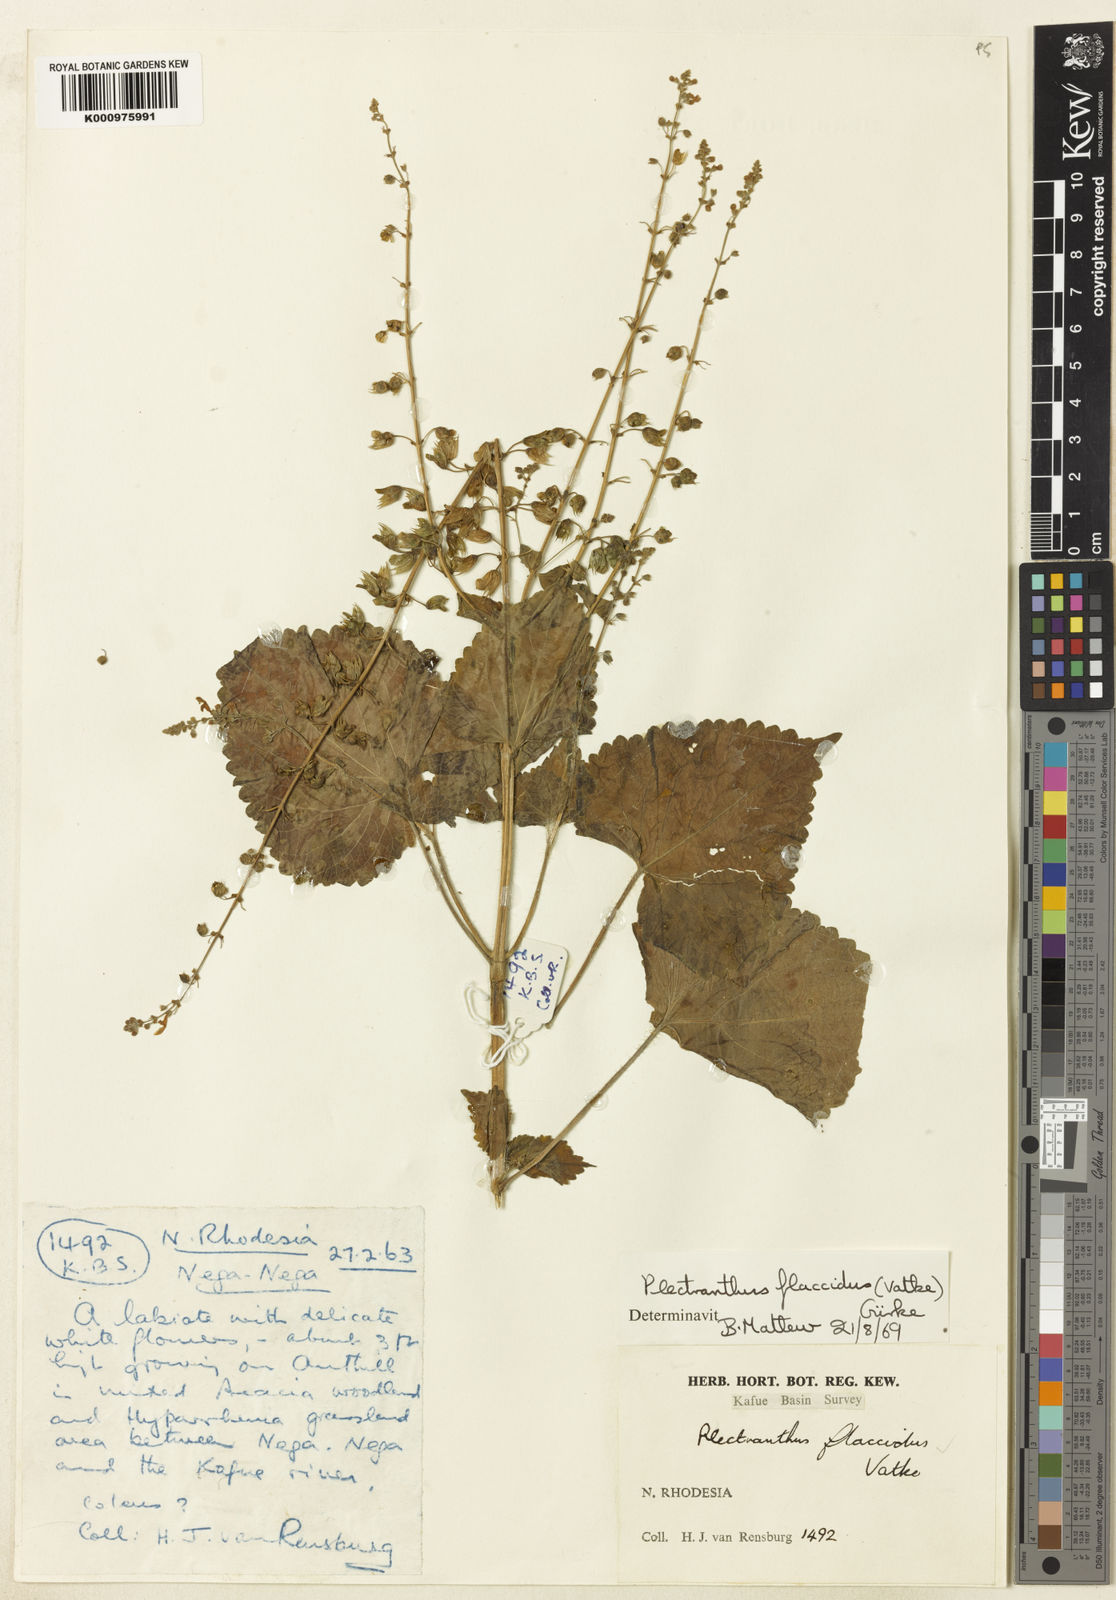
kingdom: Plantae
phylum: Tracheophyta
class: Magnoliopsida
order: Lamiales
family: Lamiaceae
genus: Plectranthus
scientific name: Plectranthus termiticola
